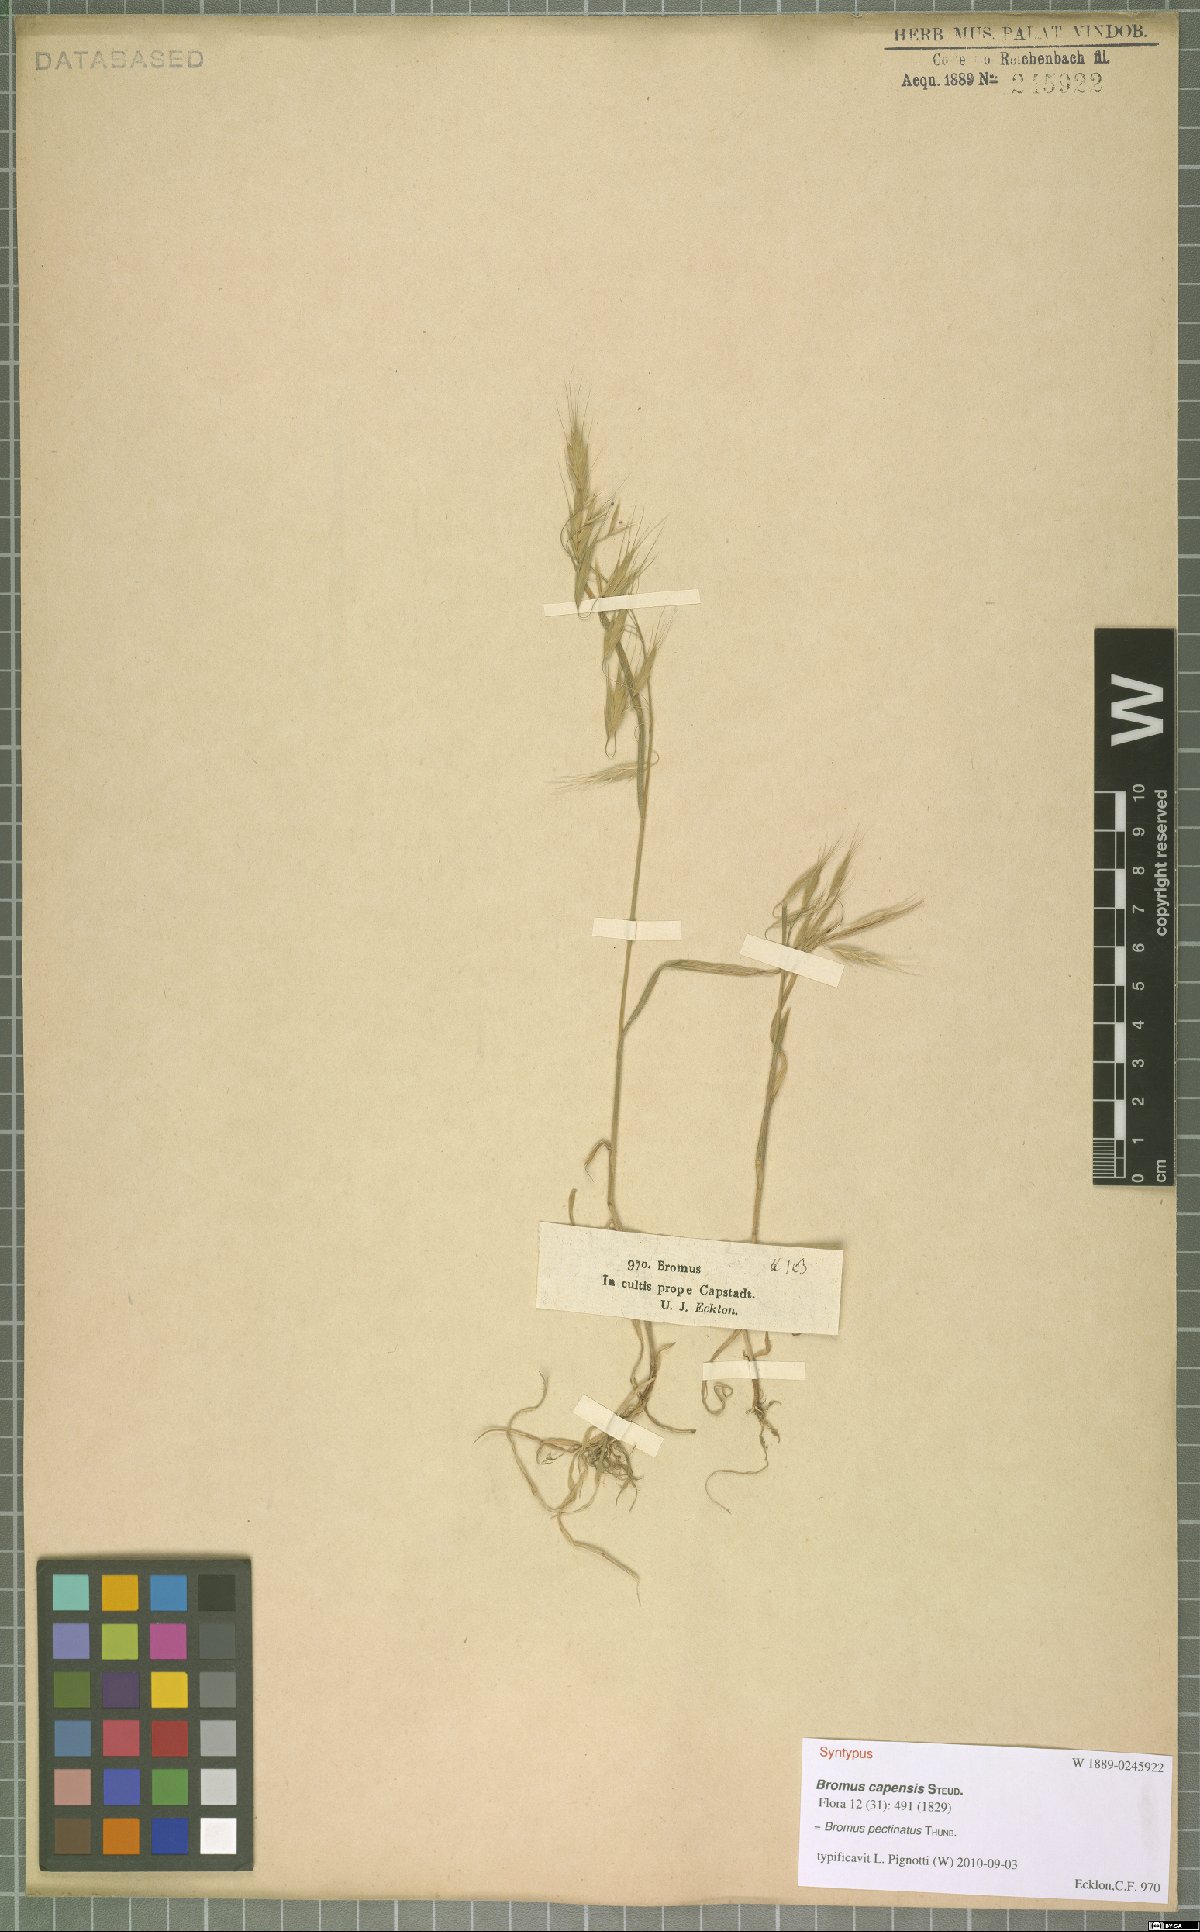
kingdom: Plantae
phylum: Tracheophyta
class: Liliopsida
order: Poales
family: Poaceae
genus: Bromus
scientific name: Bromus pectinatus
